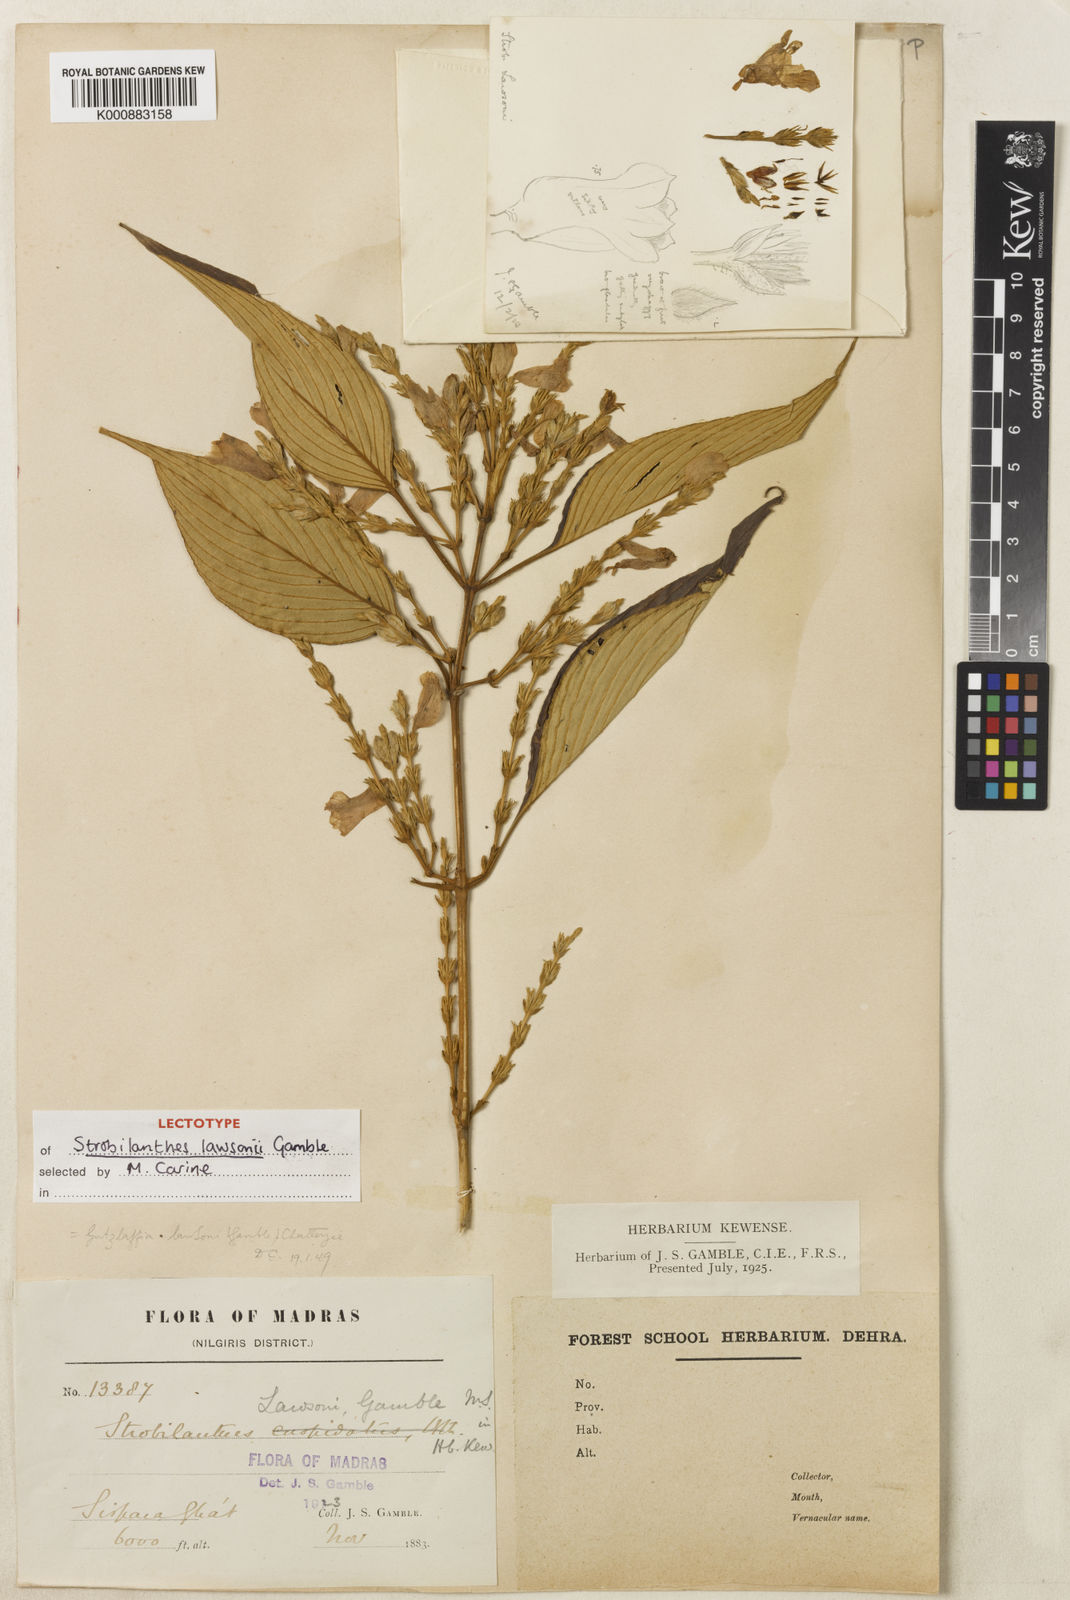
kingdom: Plantae
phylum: Tracheophyta
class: Magnoliopsida
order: Lamiales
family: Acanthaceae
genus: Strobilanthes
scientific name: Strobilanthes lawsonii
